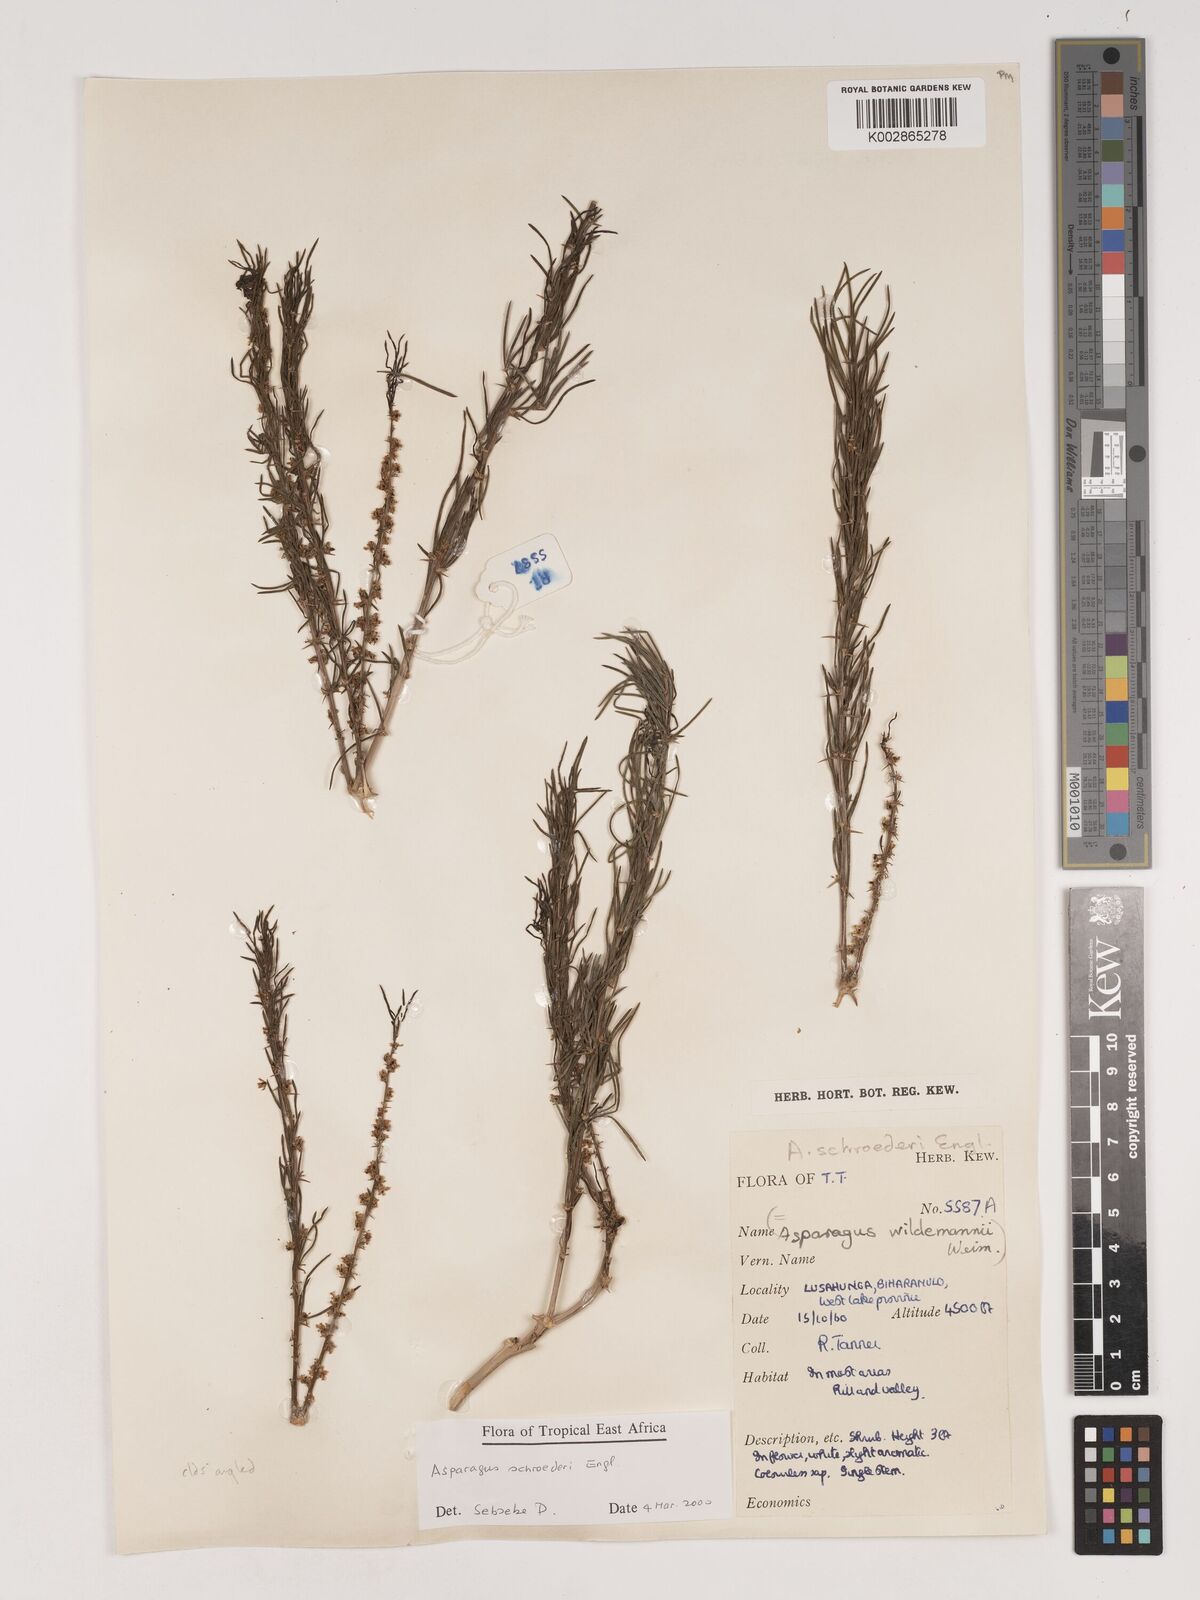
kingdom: Plantae
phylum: Tracheophyta
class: Liliopsida
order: Asparagales
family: Asparagaceae
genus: Asparagus
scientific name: Asparagus schroederi
